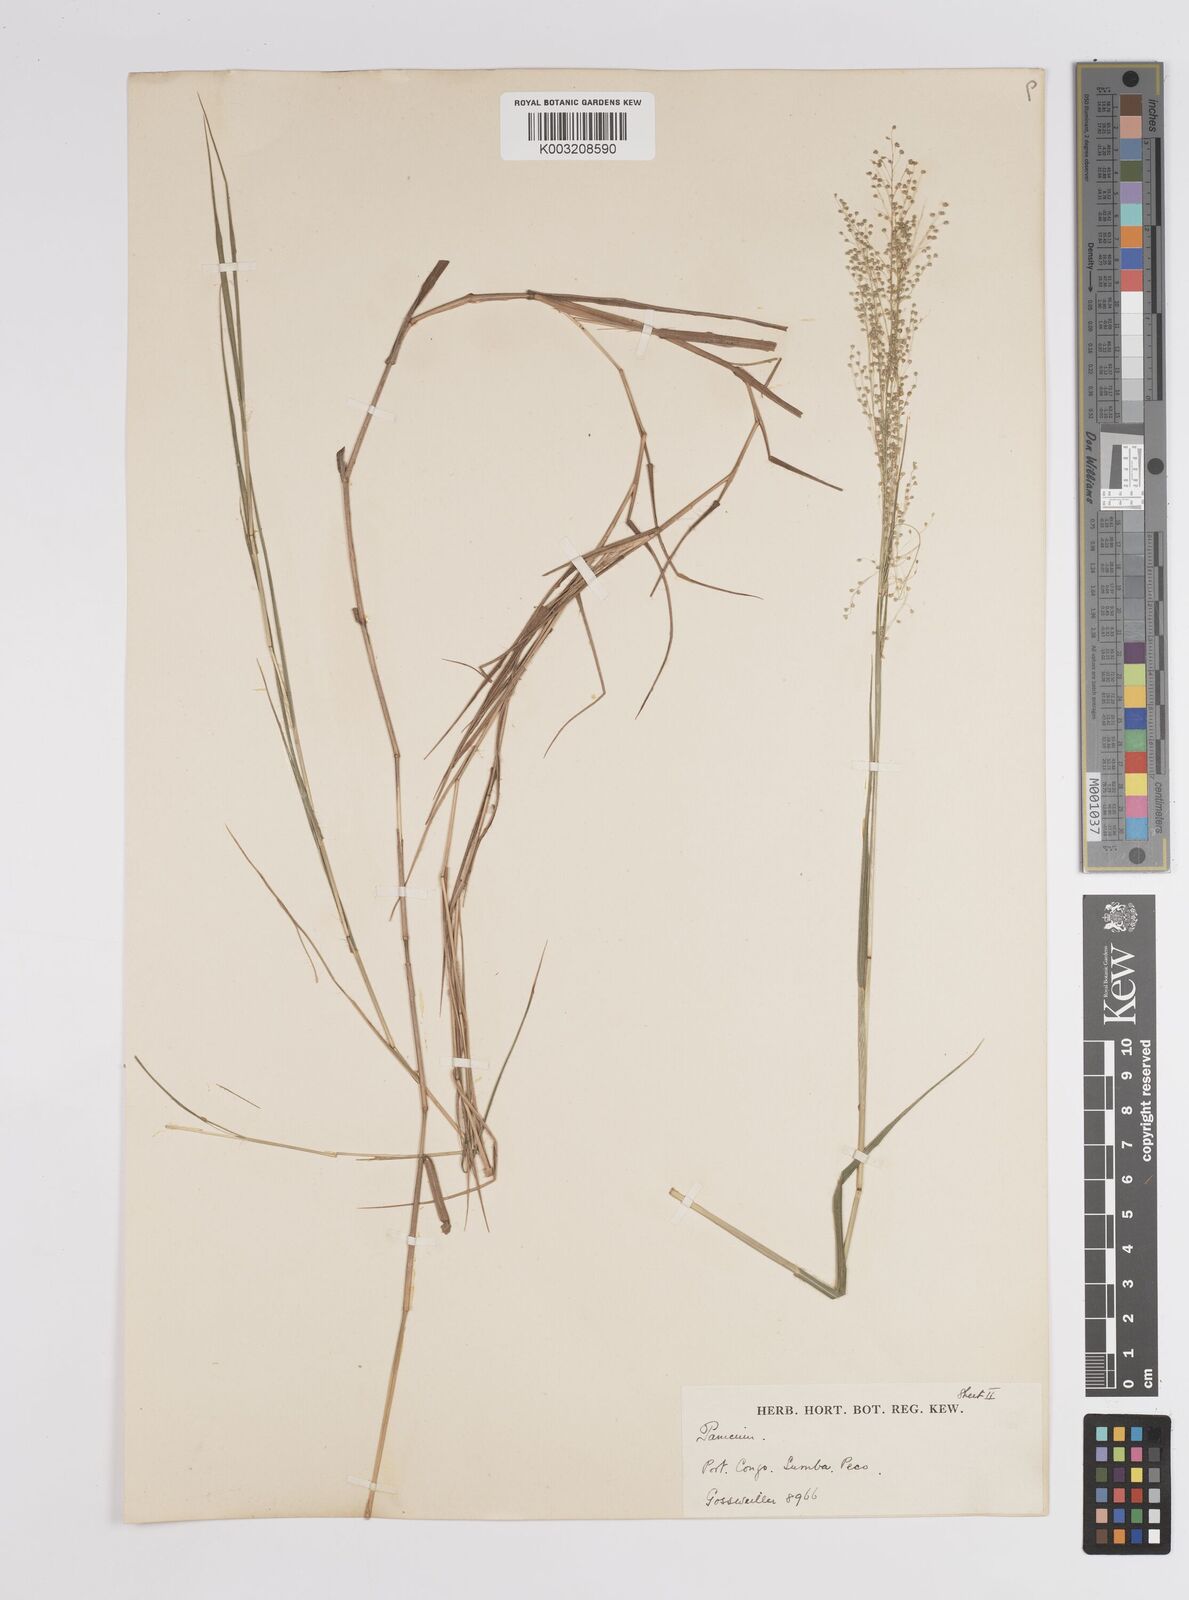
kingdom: Plantae
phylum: Tracheophyta
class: Liliopsida
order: Poales
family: Poaceae
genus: Trichanthecium
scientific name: Trichanthecium nervatum
